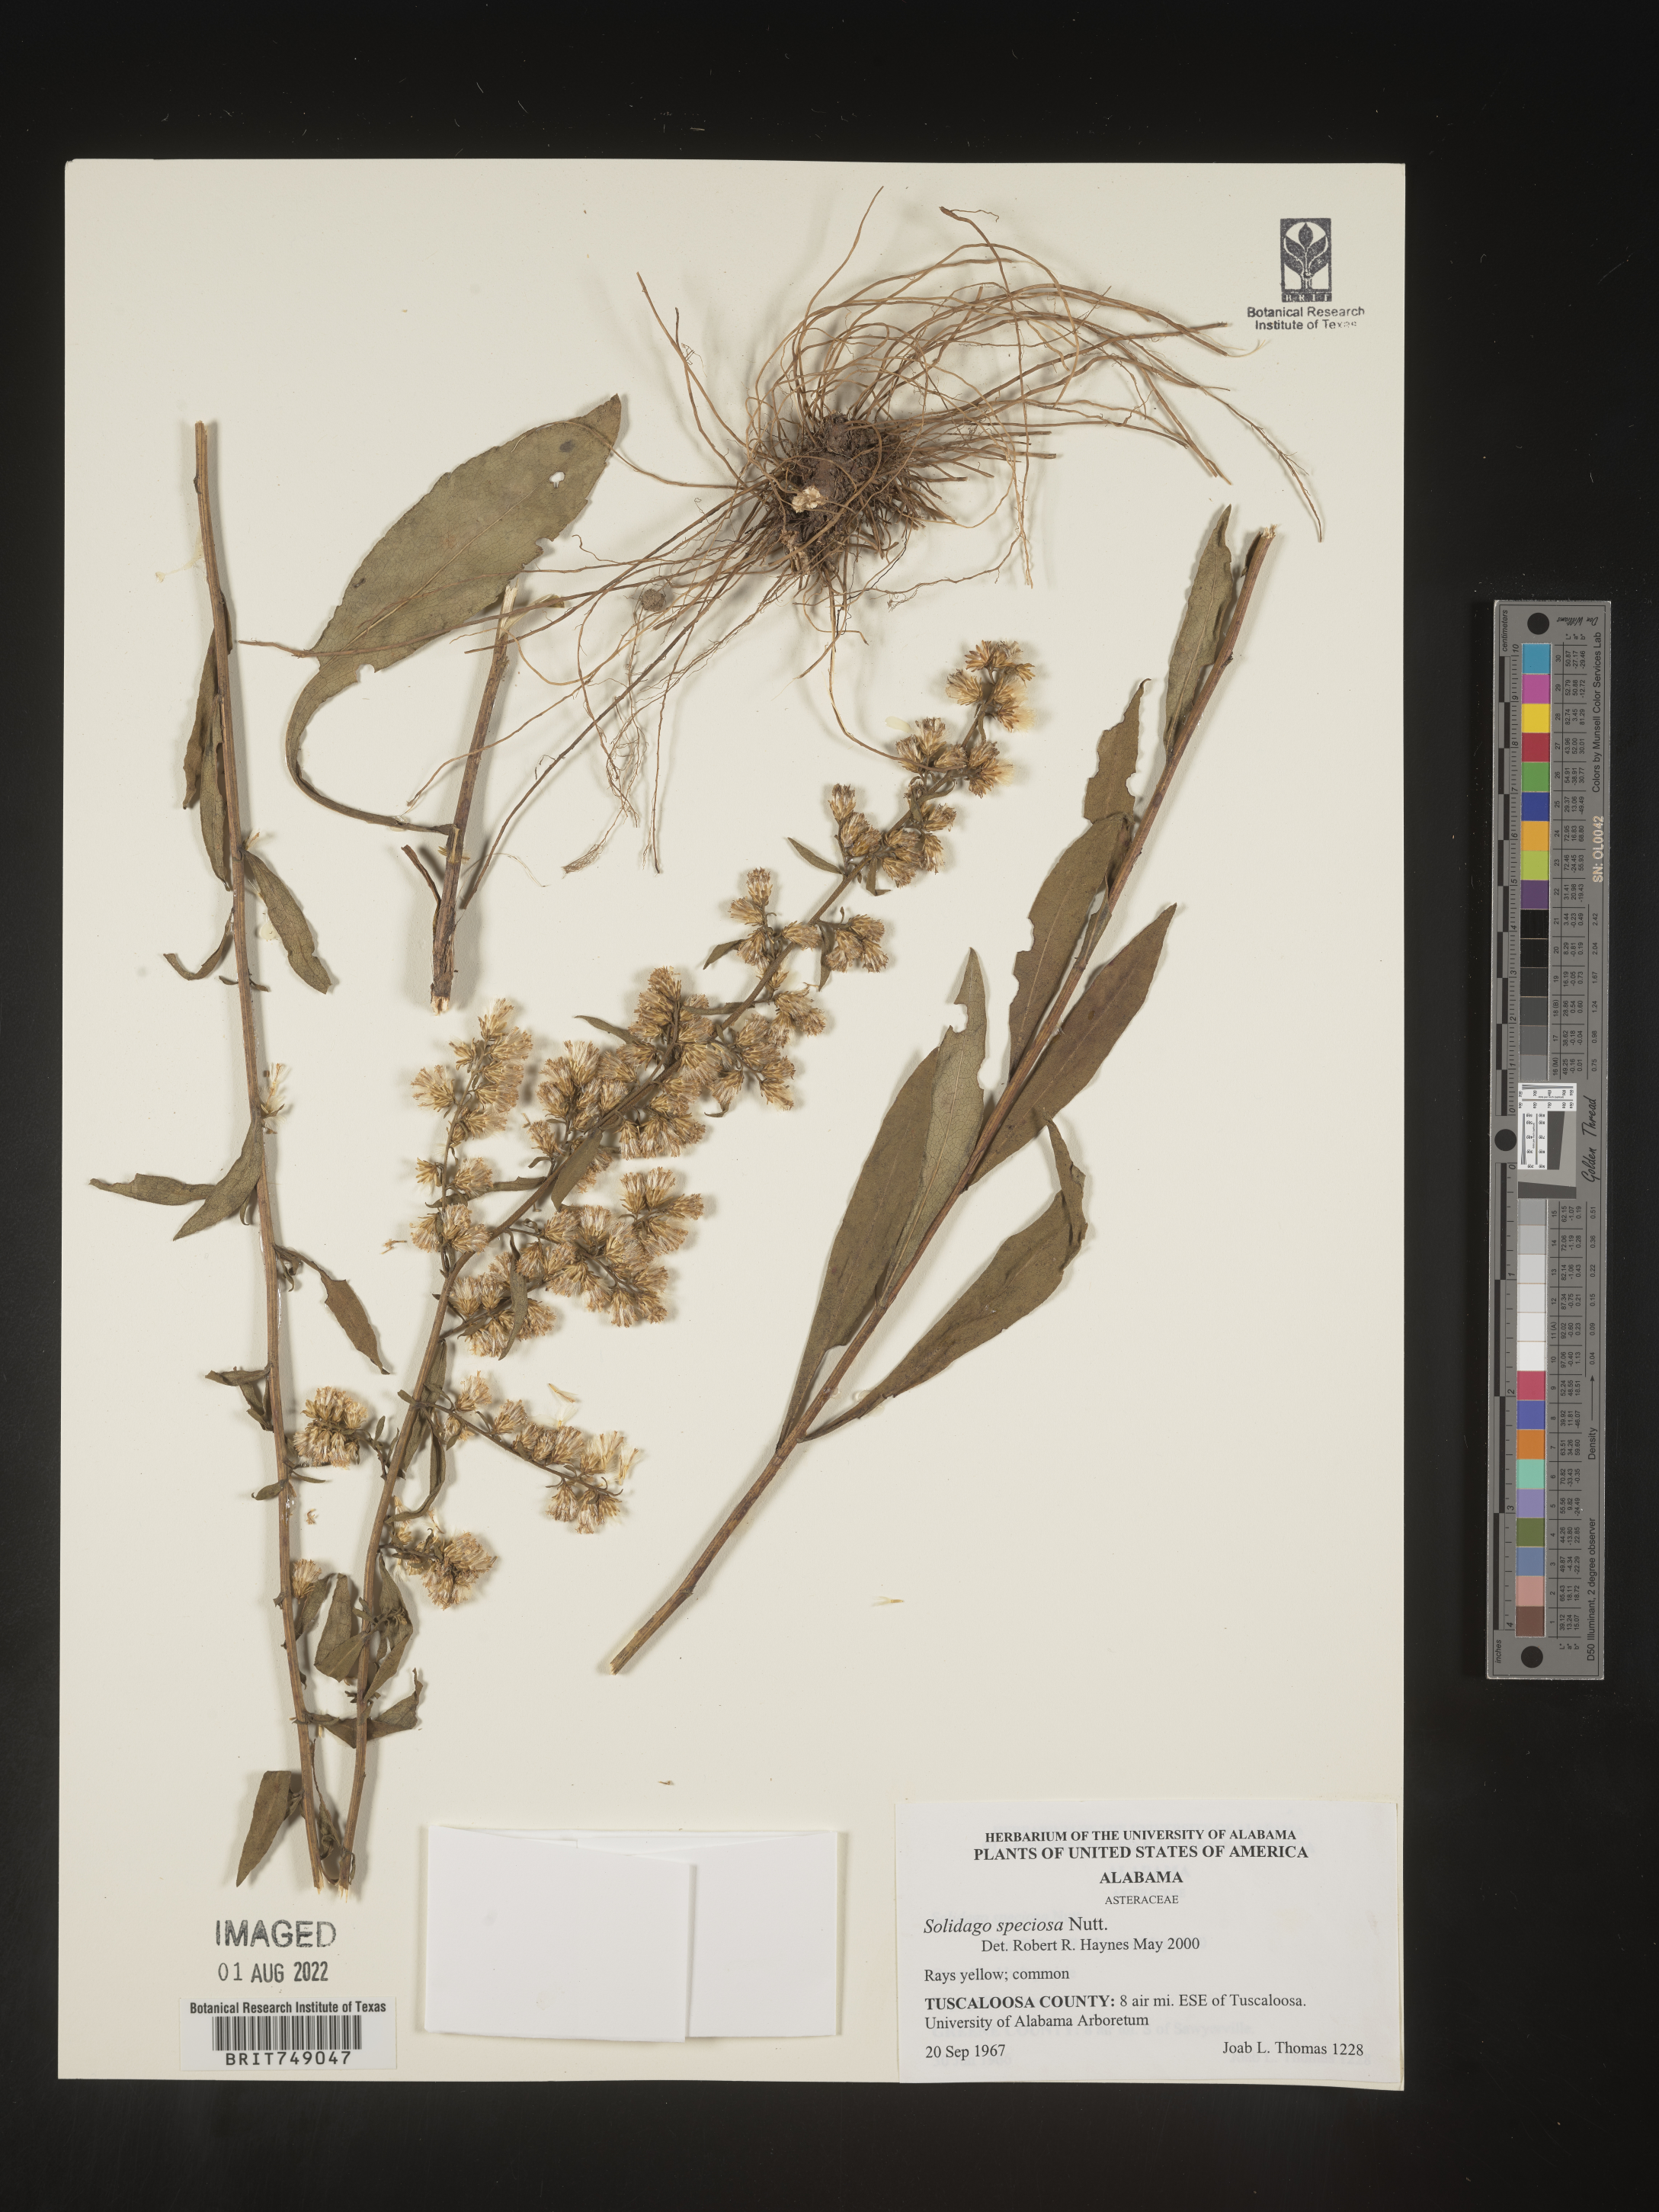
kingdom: Plantae
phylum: Tracheophyta
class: Magnoliopsida
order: Asterales
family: Asteraceae
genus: Solidago
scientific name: Solidago speciosa
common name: Showy goldenrod
